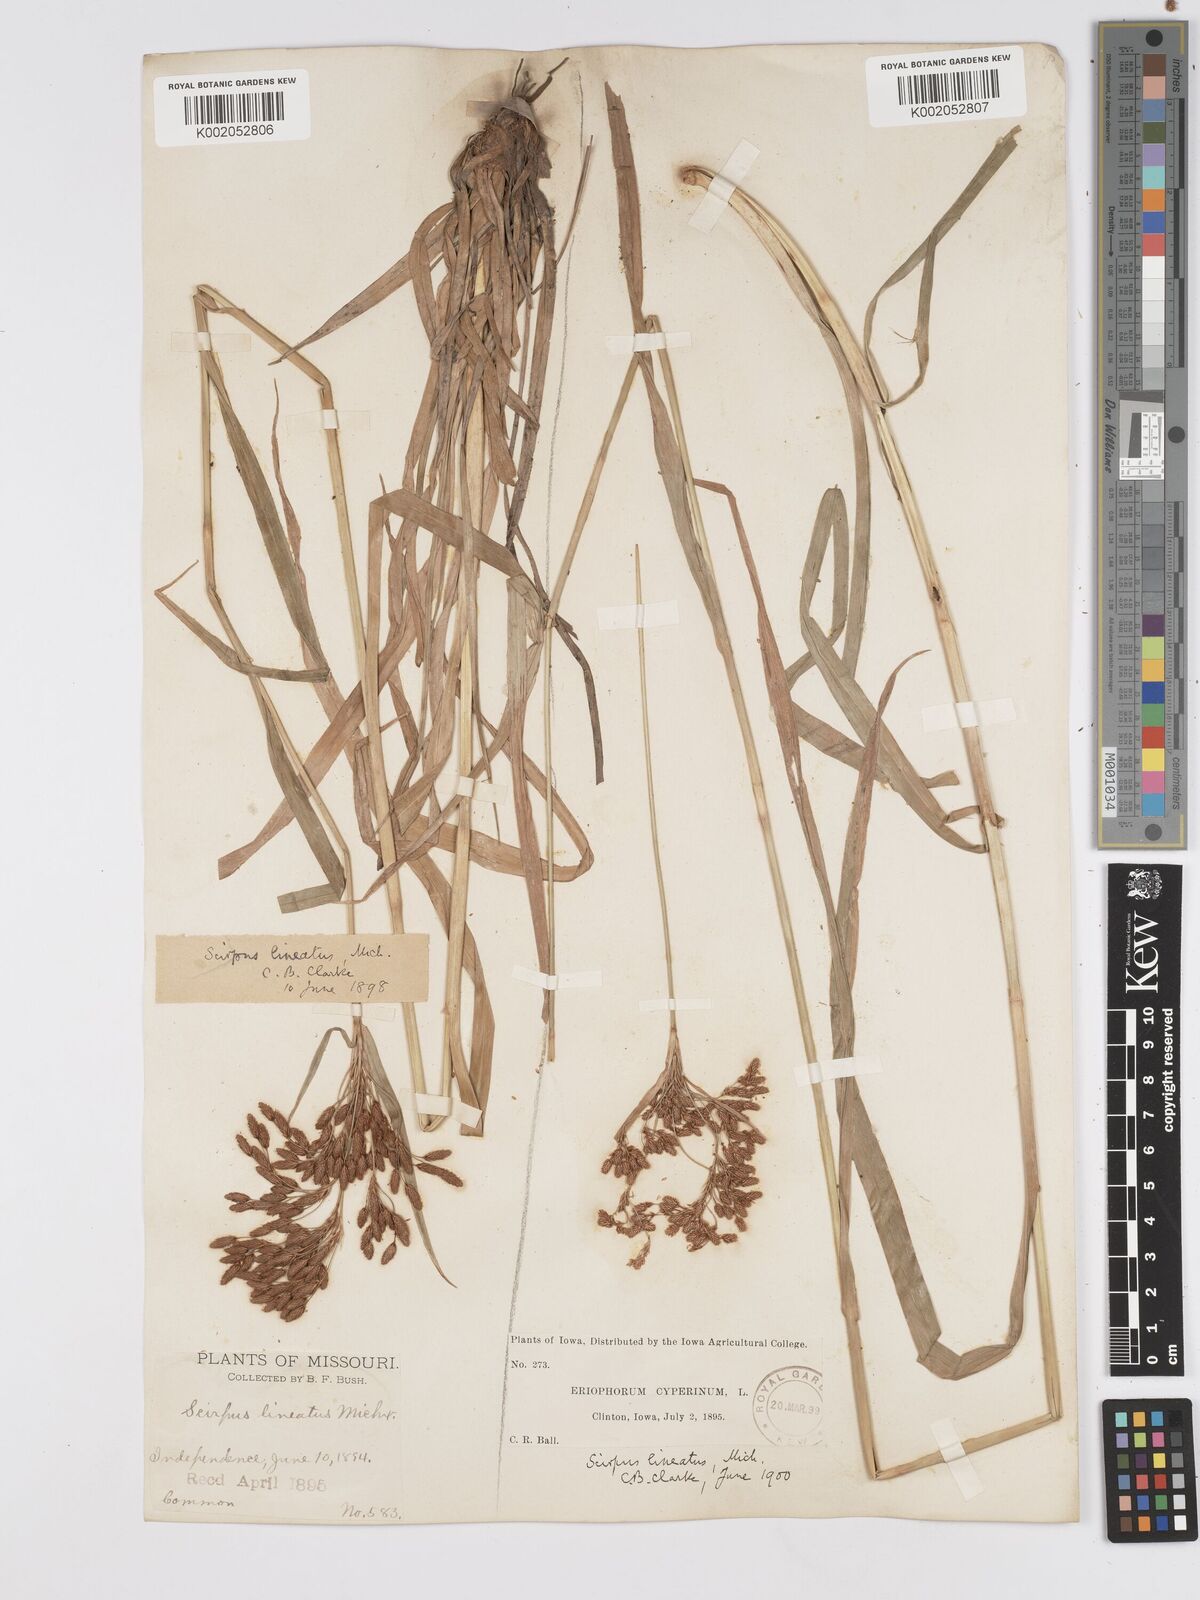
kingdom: Plantae
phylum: Tracheophyta
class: Liliopsida
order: Poales
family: Cyperaceae
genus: Scirpus
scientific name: Scirpus lineatus
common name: Drooping bulrush
